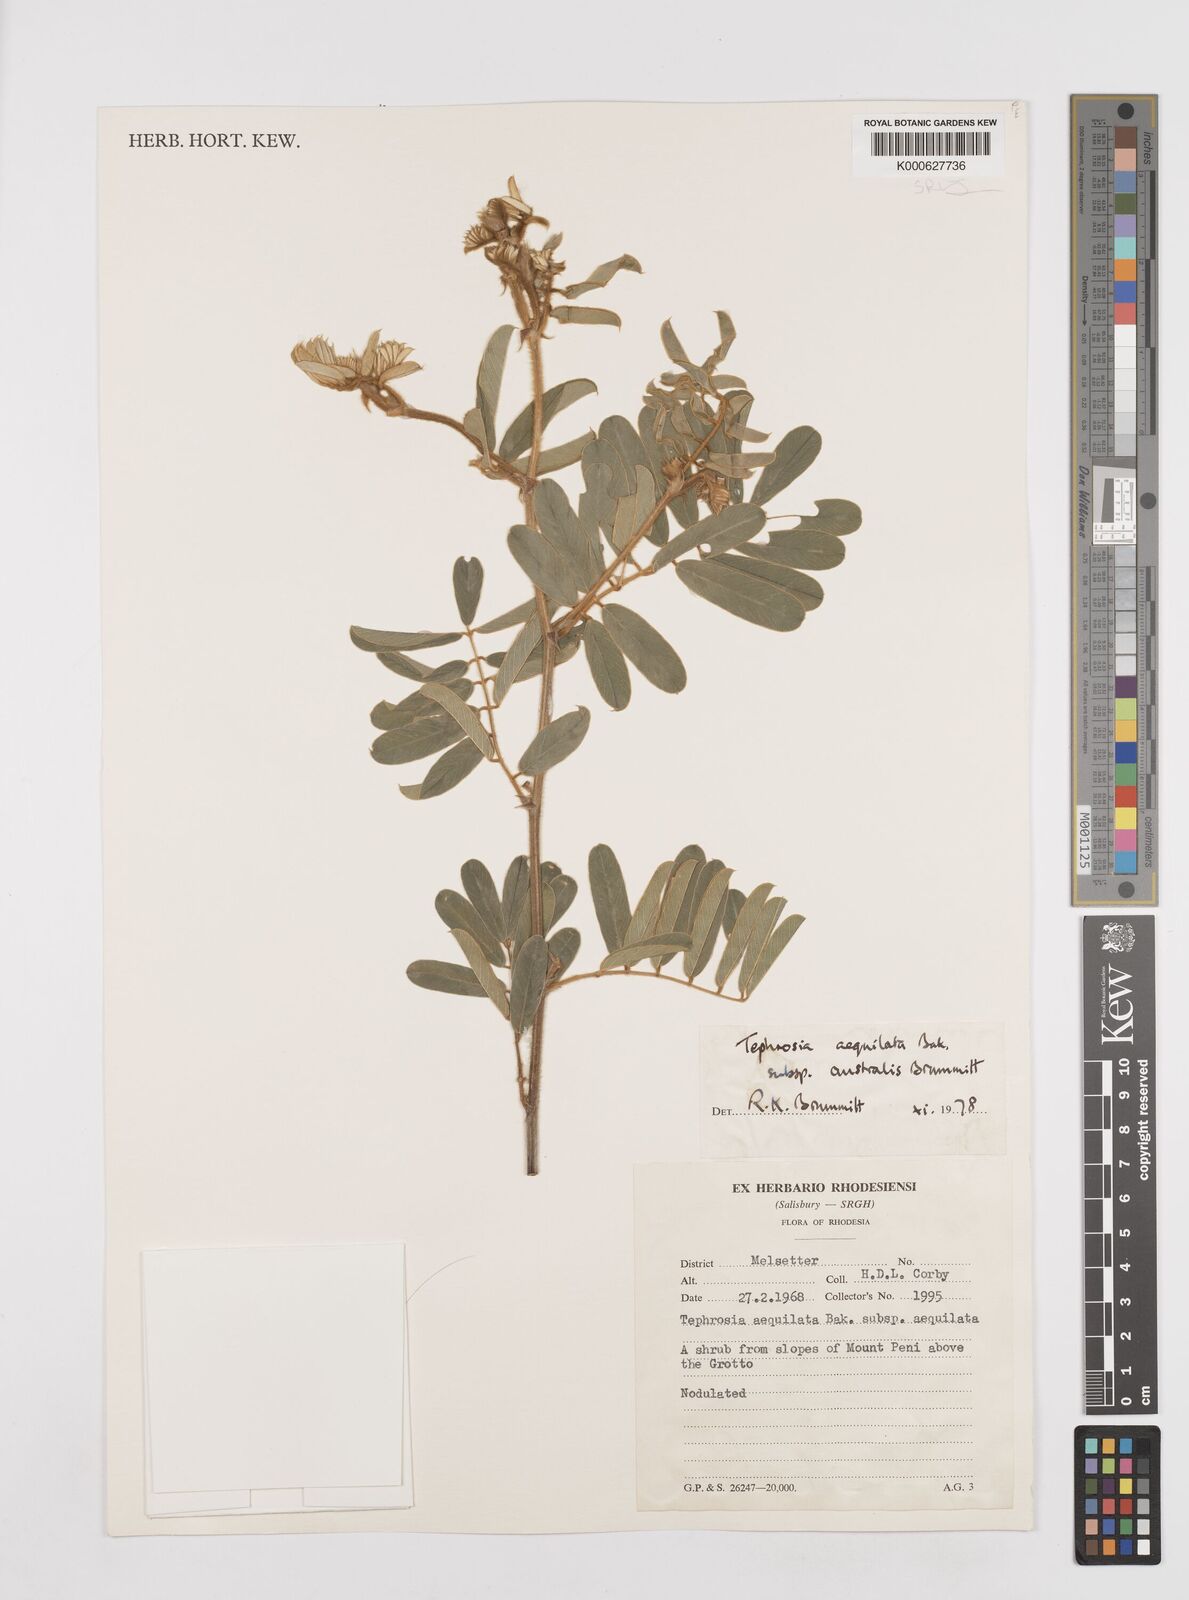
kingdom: Plantae
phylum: Tracheophyta
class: Magnoliopsida
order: Fabales
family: Fabaceae
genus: Tephrosia
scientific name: Tephrosia
